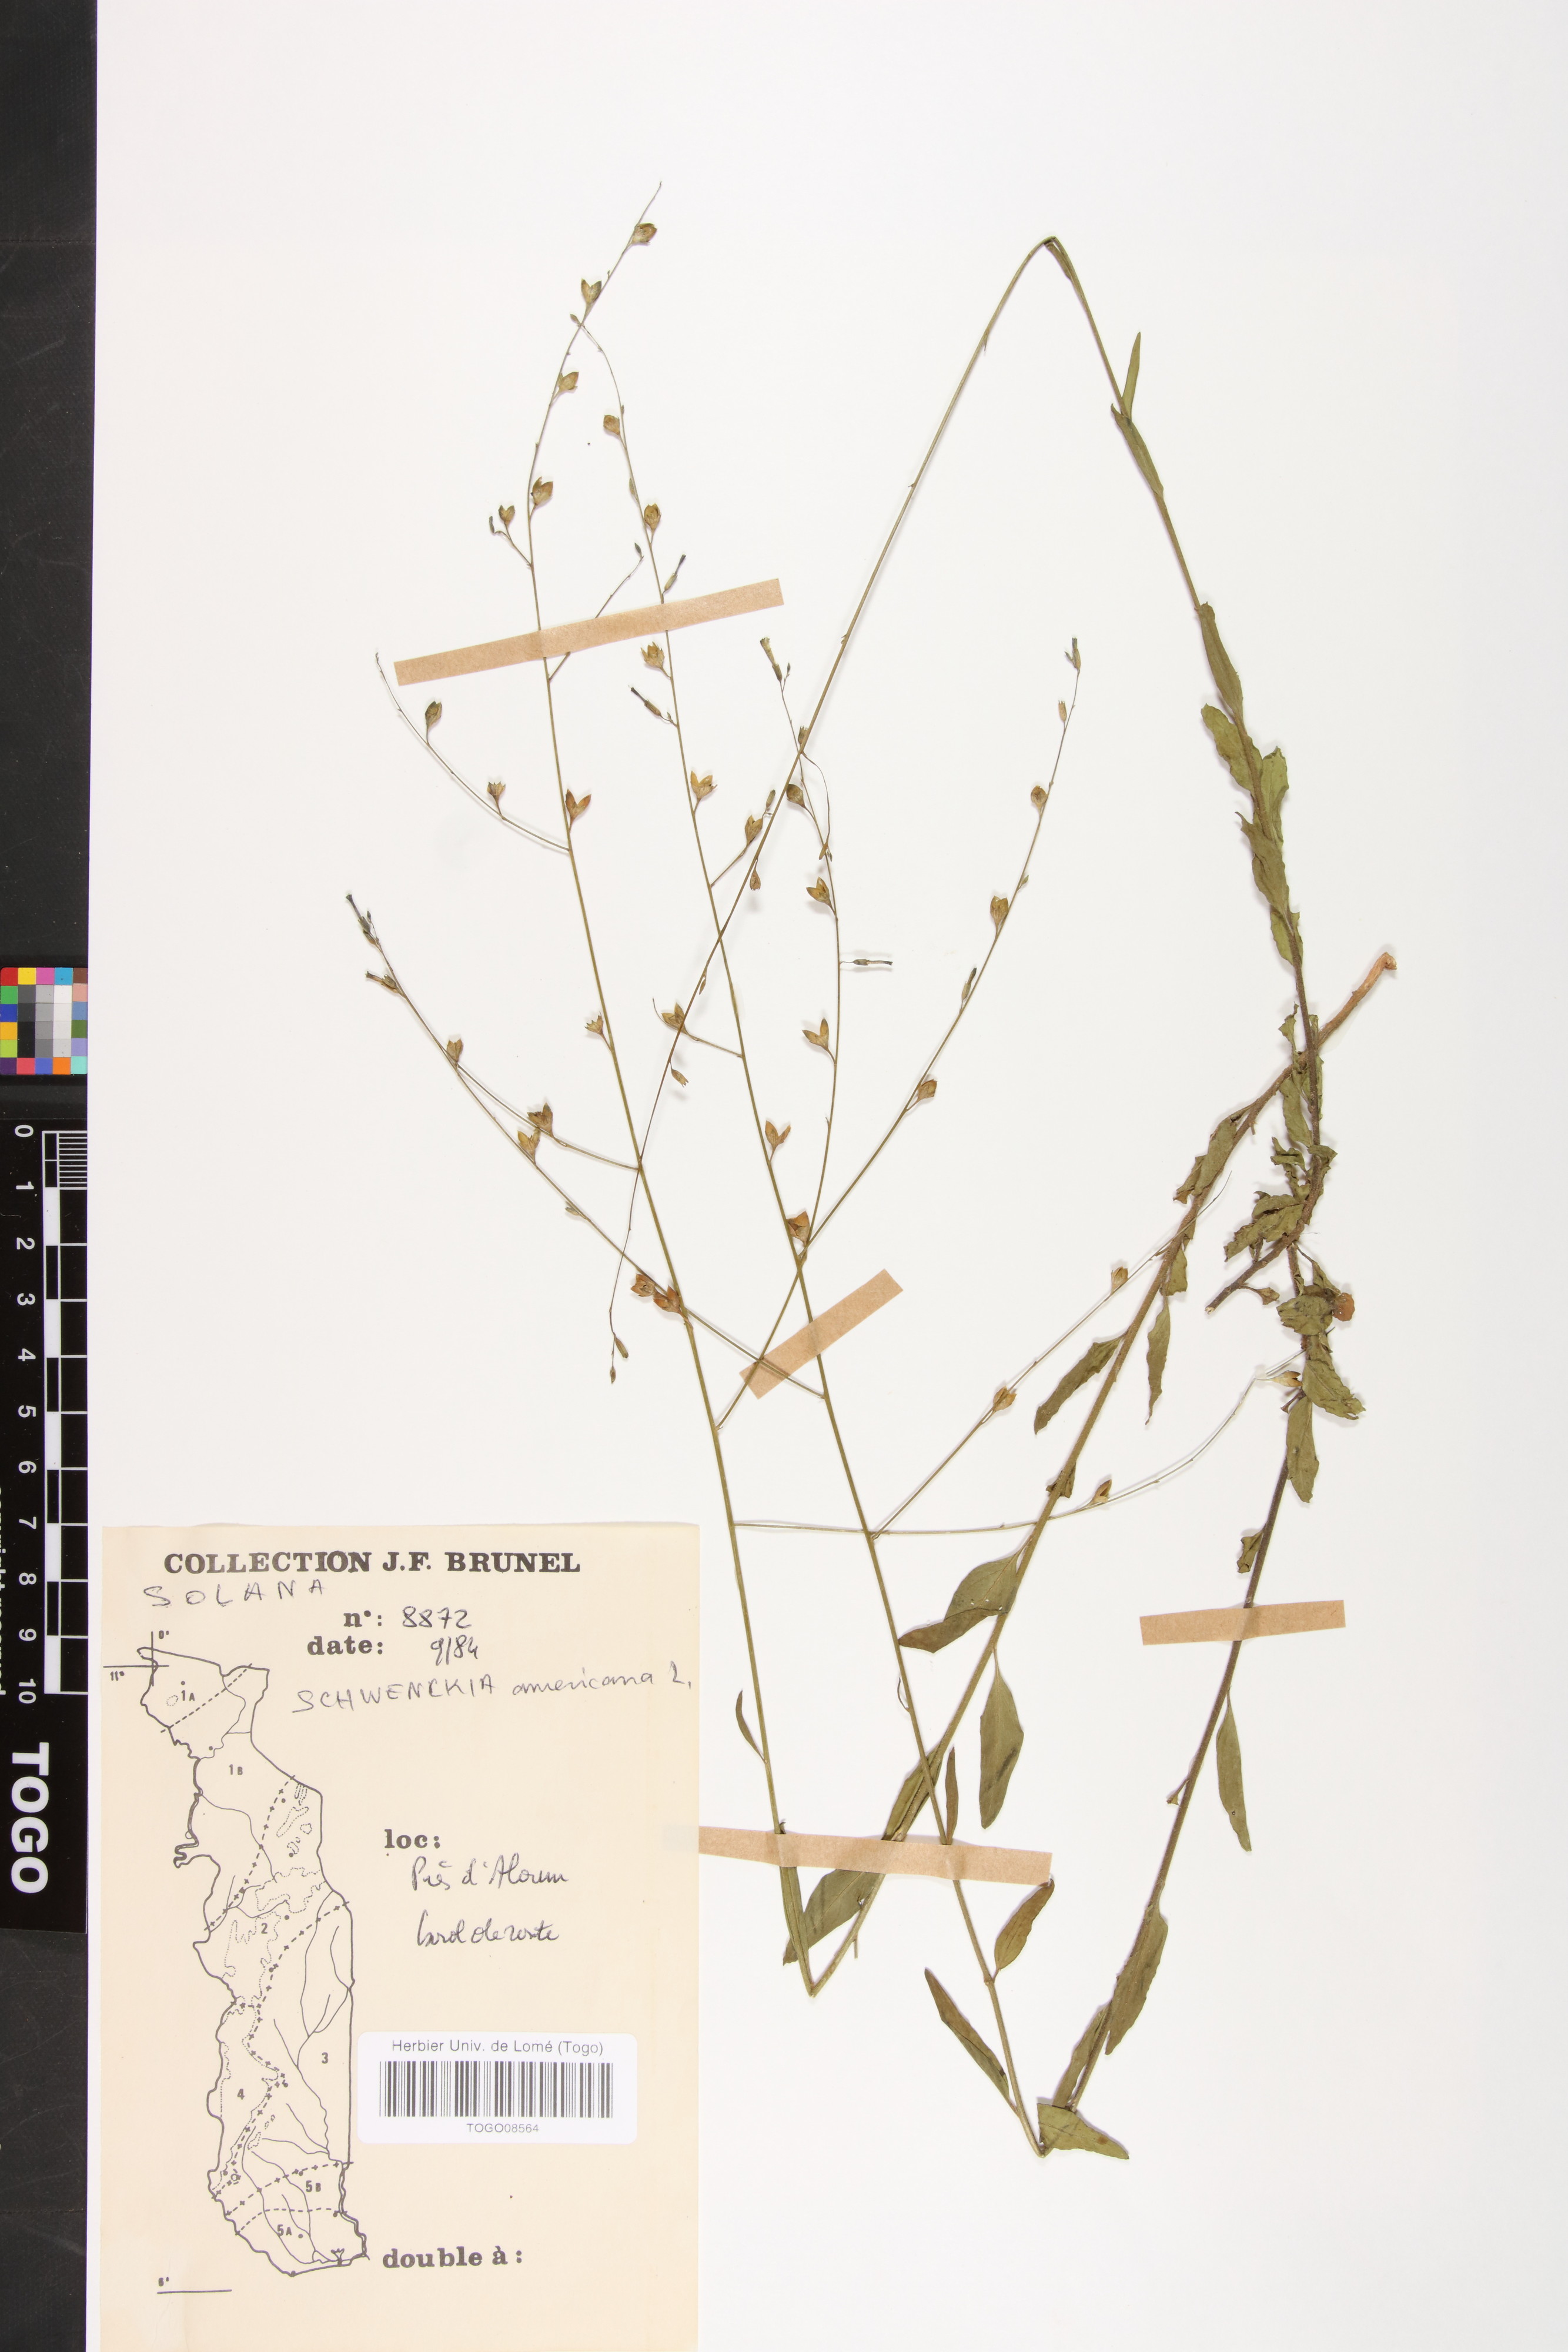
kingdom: Plantae
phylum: Tracheophyta
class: Magnoliopsida
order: Solanales
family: Solanaceae
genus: Schwenckia
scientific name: Schwenckia americana
